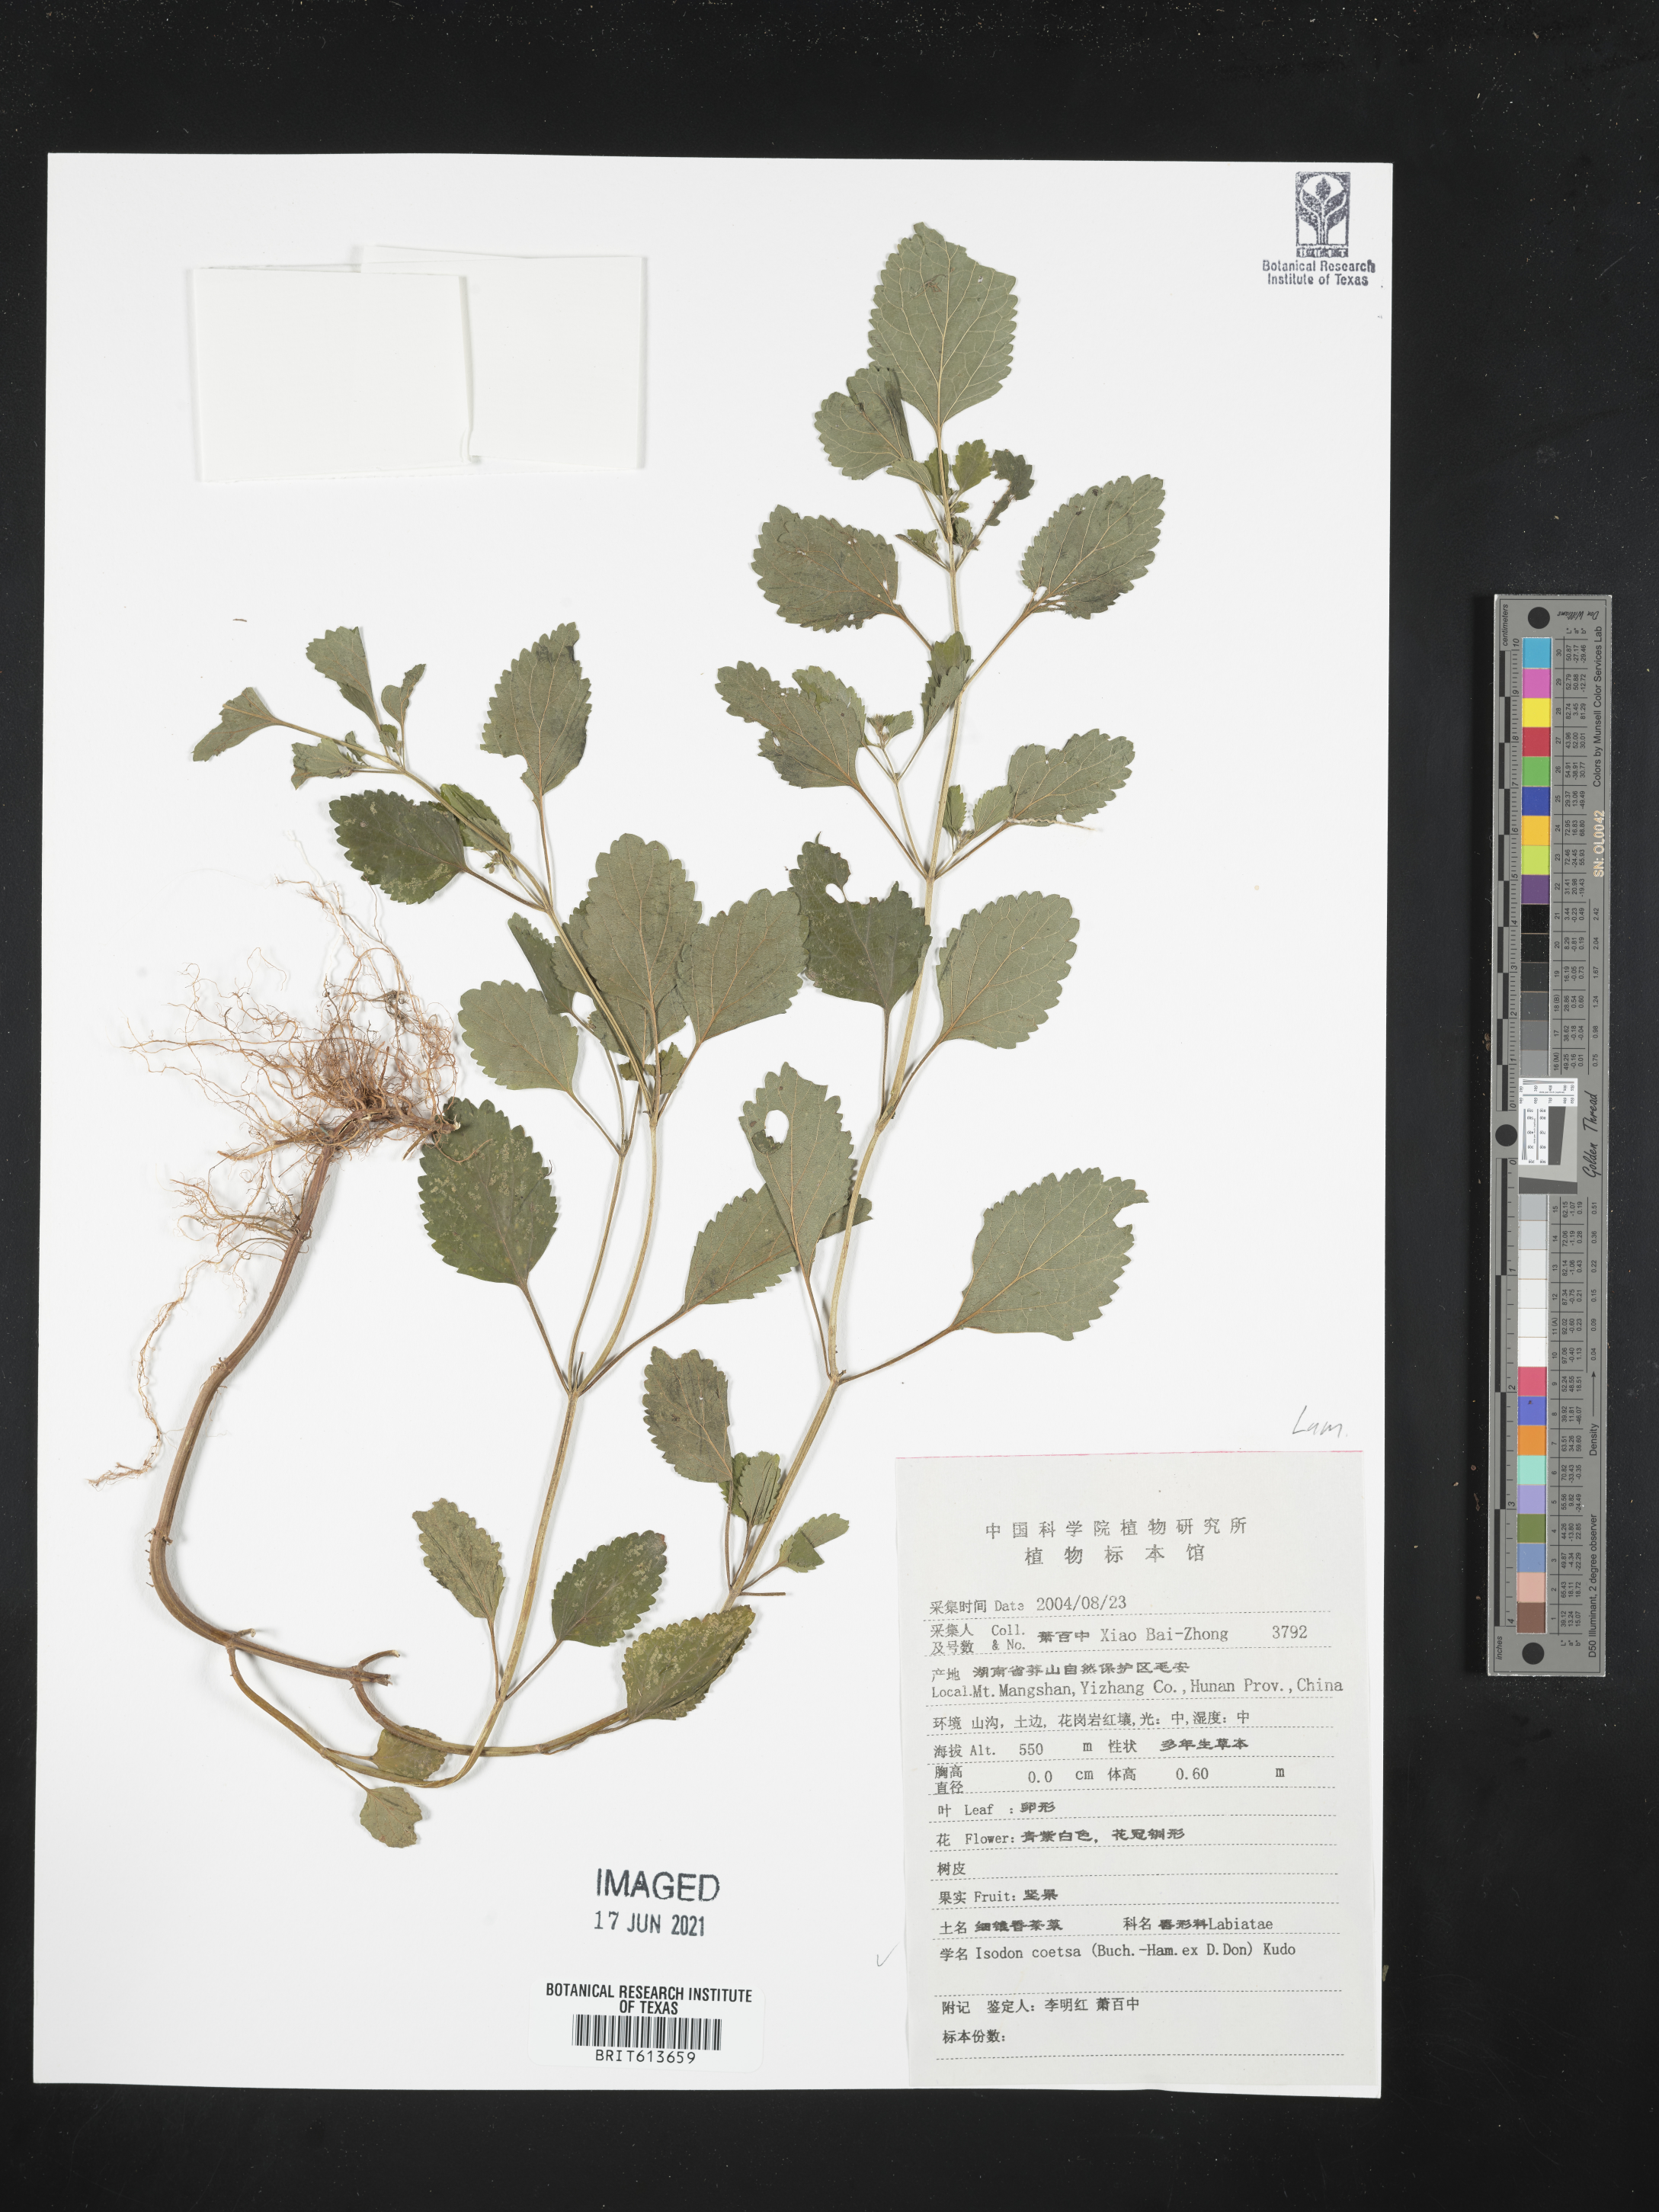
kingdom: Plantae
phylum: Tracheophyta
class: Magnoliopsida
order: Lamiales
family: Lamiaceae
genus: Isodon
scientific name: Isodon coetsa
